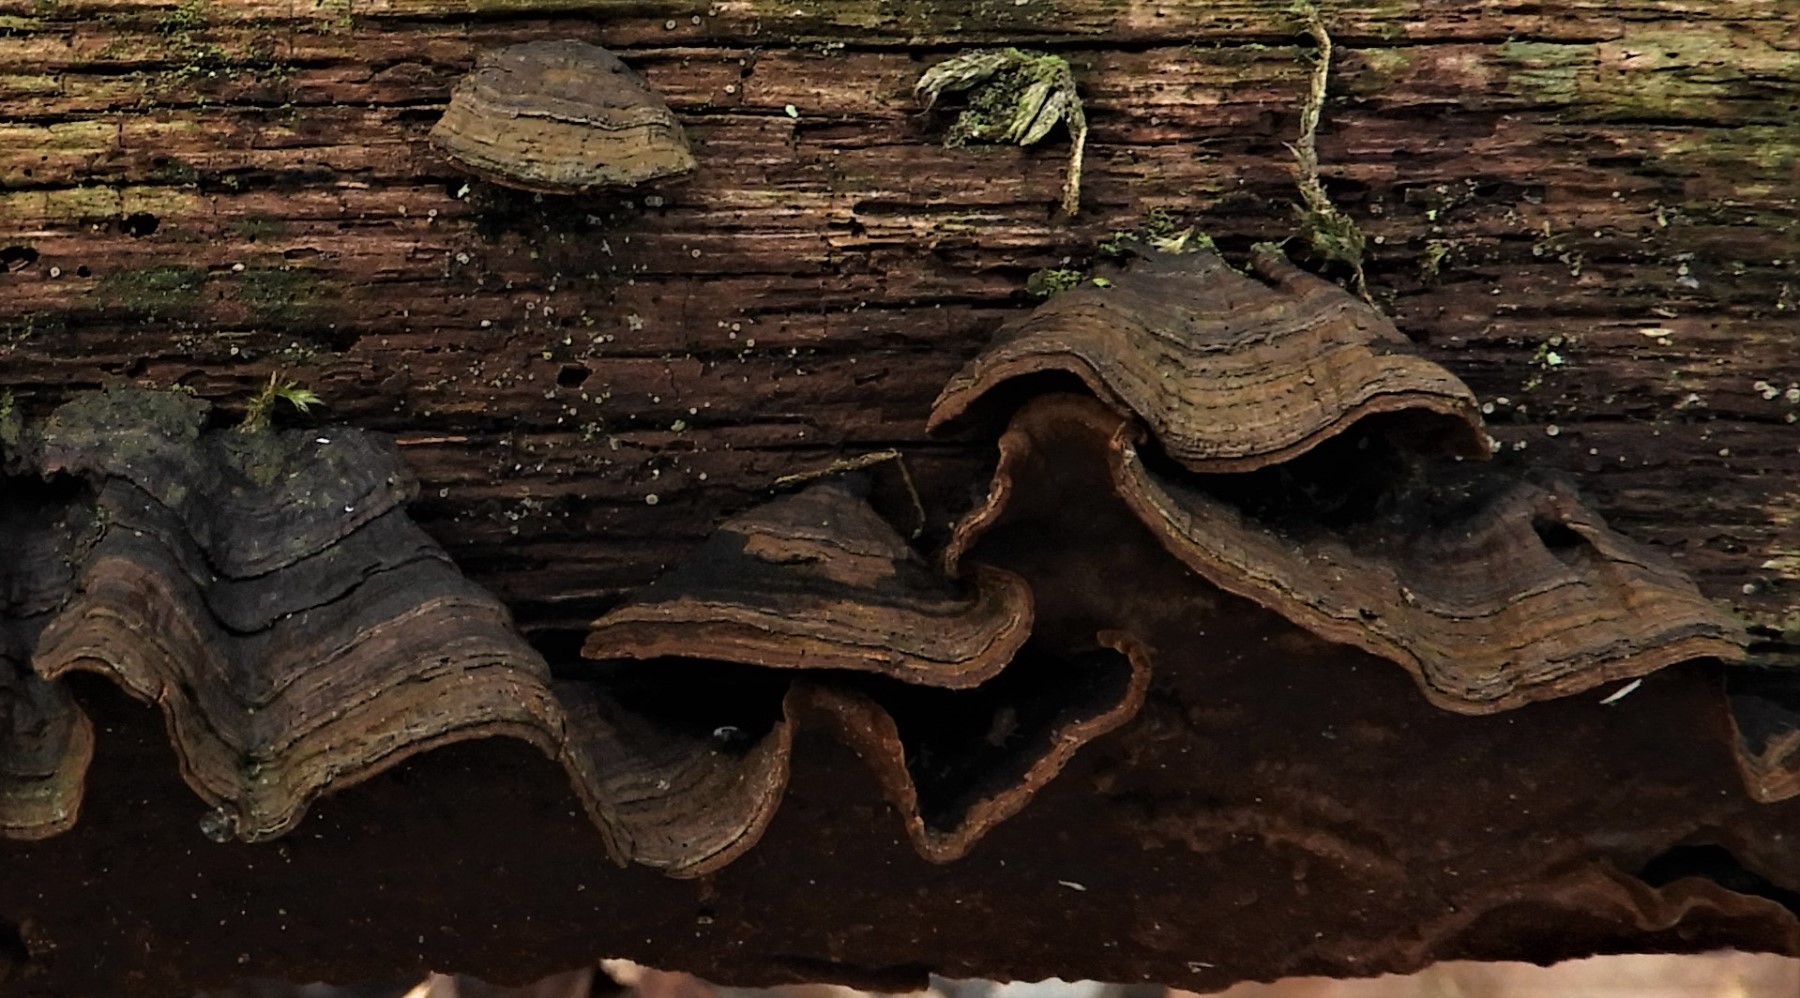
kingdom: Fungi
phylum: Basidiomycota
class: Agaricomycetes
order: Hymenochaetales
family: Hymenochaetaceae
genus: Hymenochaete
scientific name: Hymenochaete rubiginosa
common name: stiv ruslædersvamp
